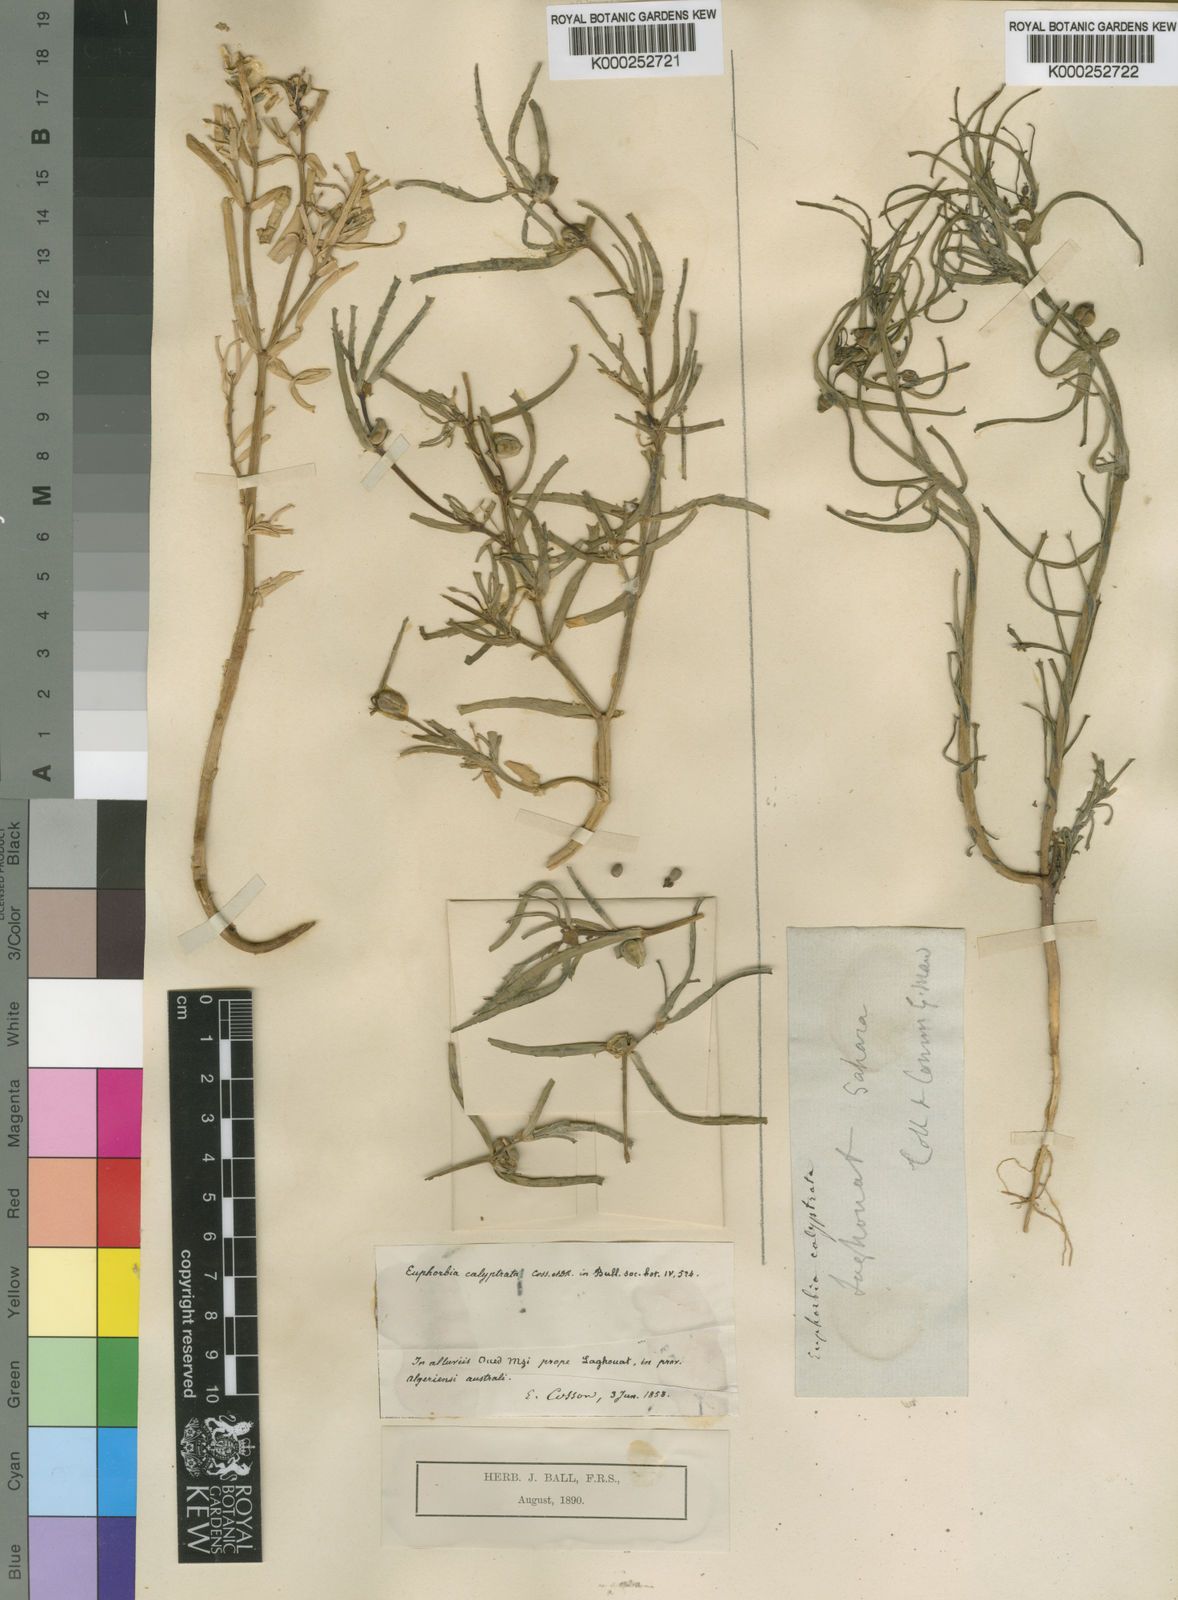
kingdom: Plantae
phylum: Tracheophyta
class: Magnoliopsida
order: Malpighiales
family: Euphorbiaceae
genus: Euphorbia
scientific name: Euphorbia calyptrata
